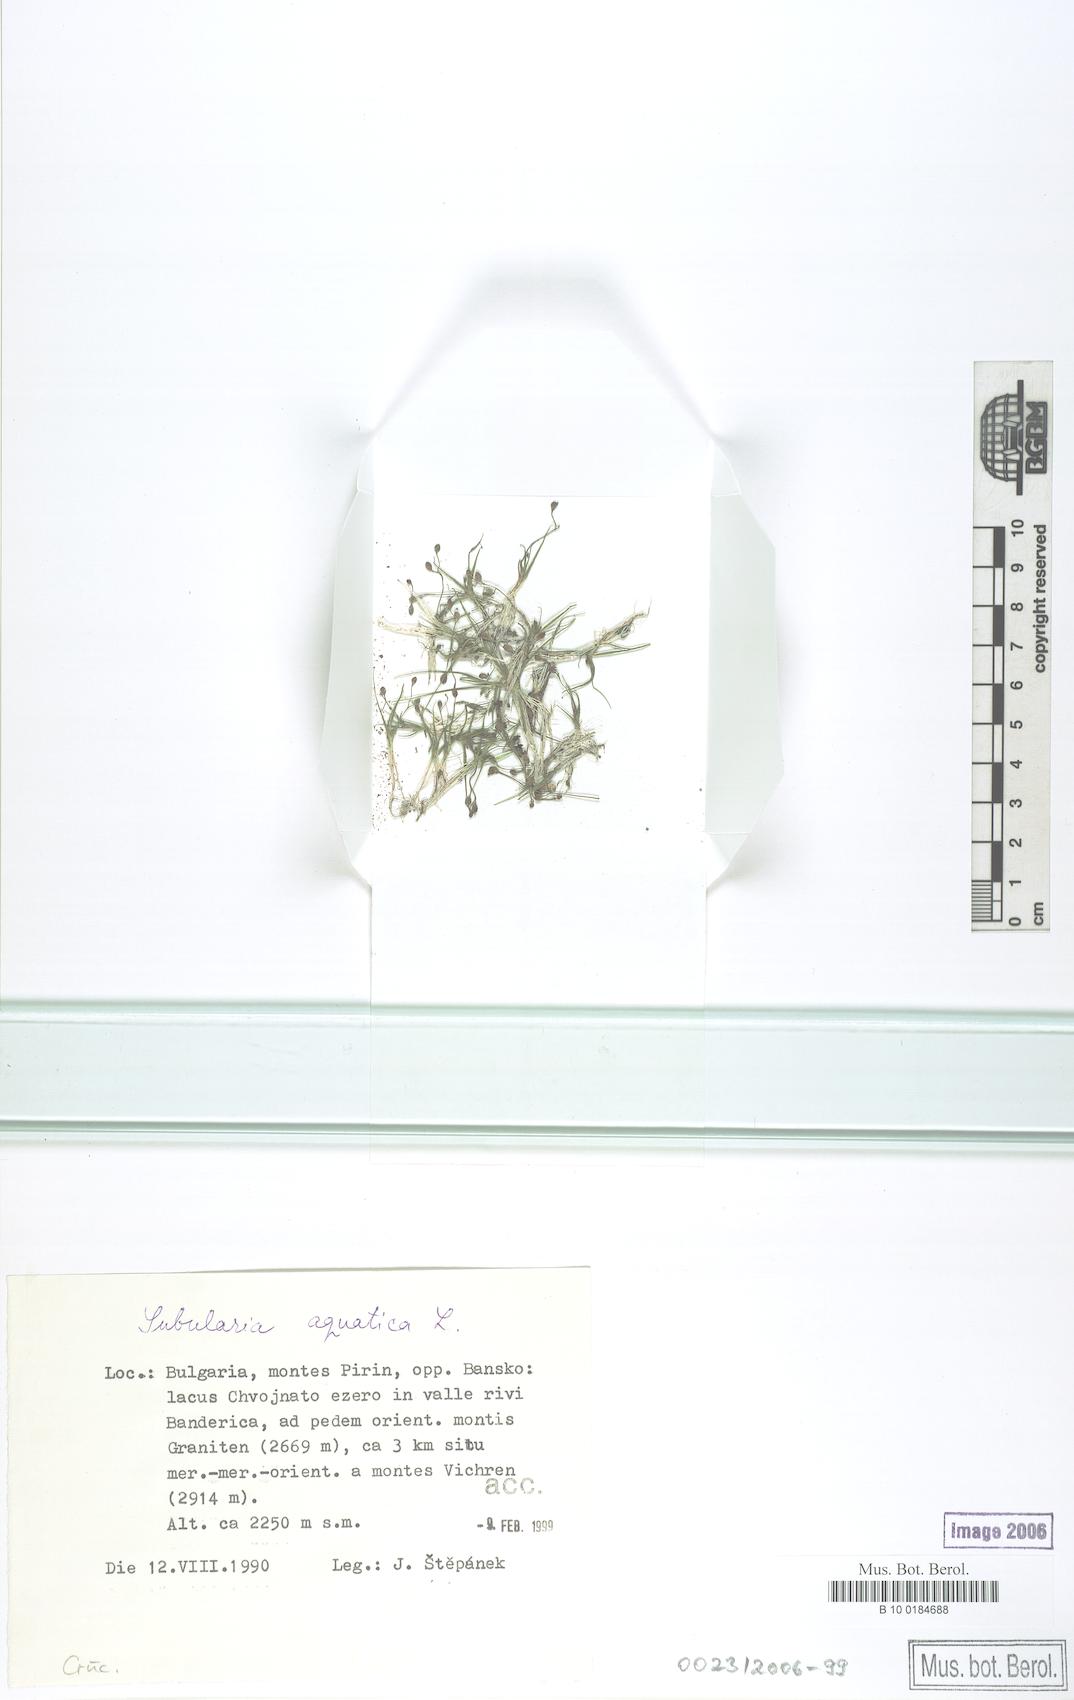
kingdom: Plantae
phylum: Tracheophyta
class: Magnoliopsida
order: Brassicales
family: Brassicaceae
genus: Subularia
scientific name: Subularia aquatica
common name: Awlwort
